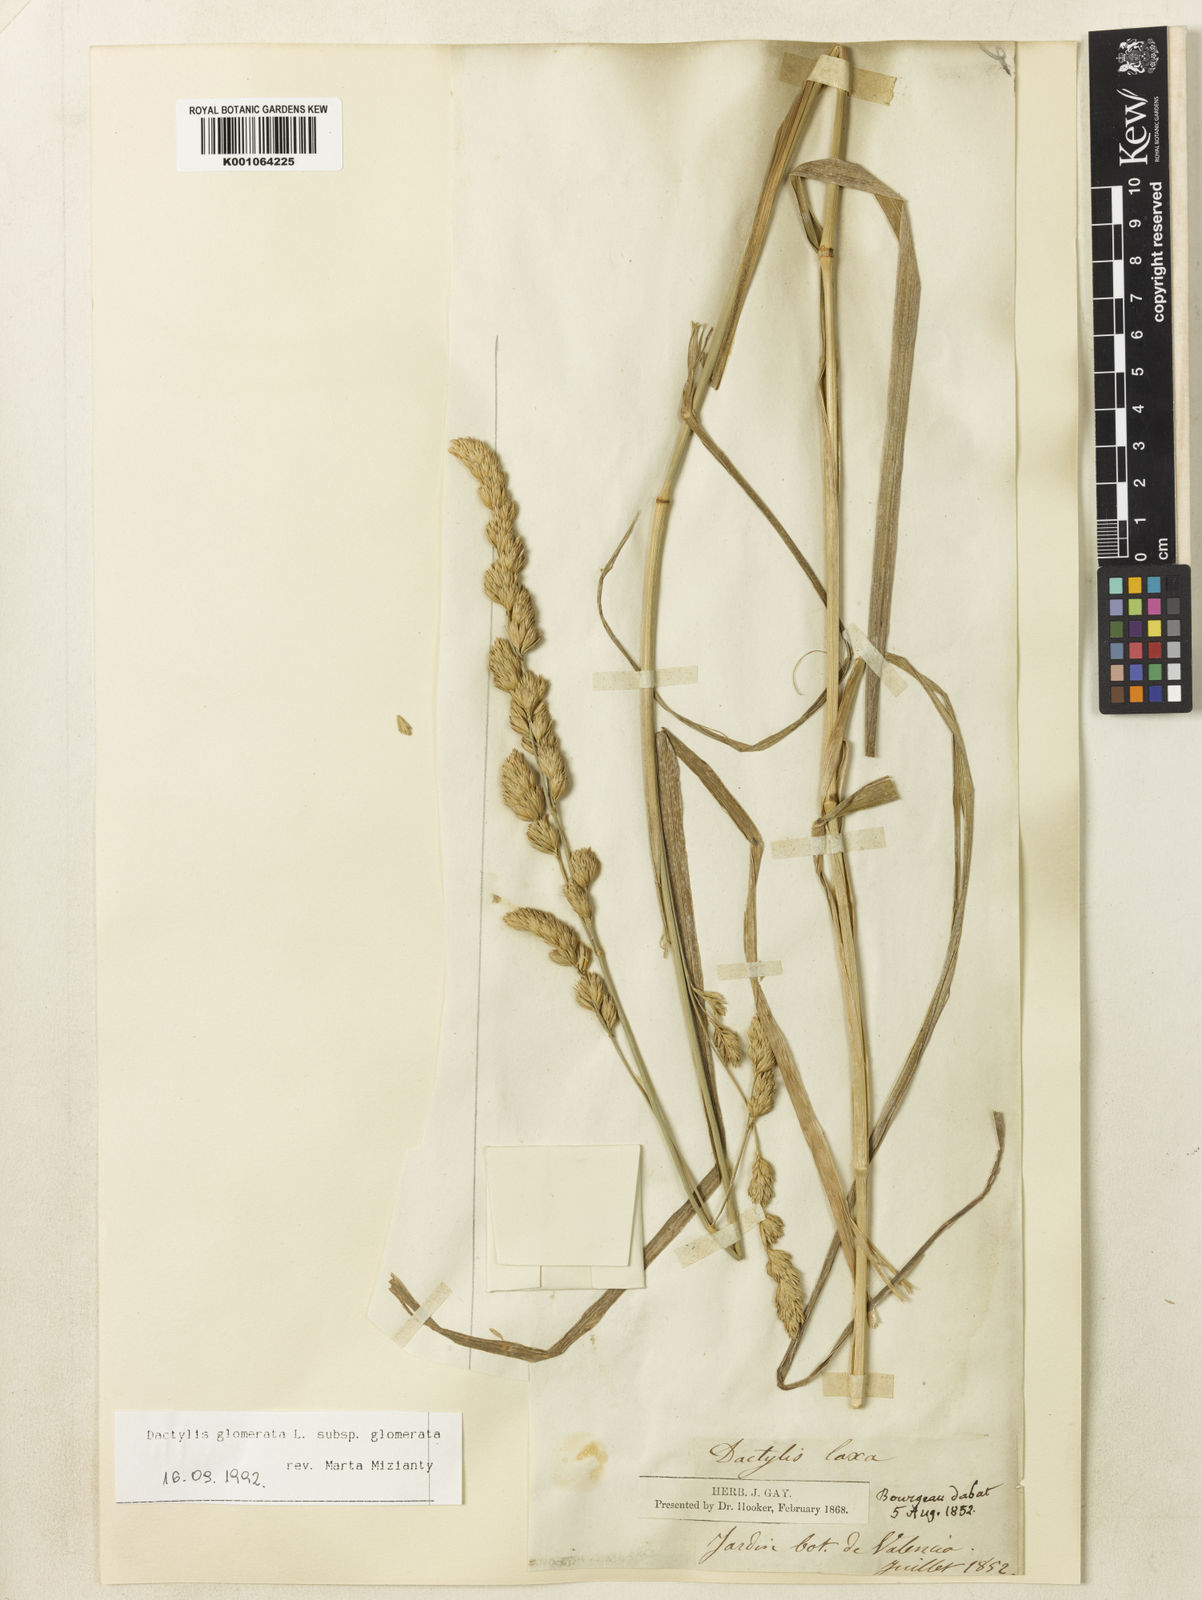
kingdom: Plantae
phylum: Tracheophyta
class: Liliopsida
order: Poales
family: Poaceae
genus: Dactylis
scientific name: Dactylis glomerata
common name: Orchardgrass
